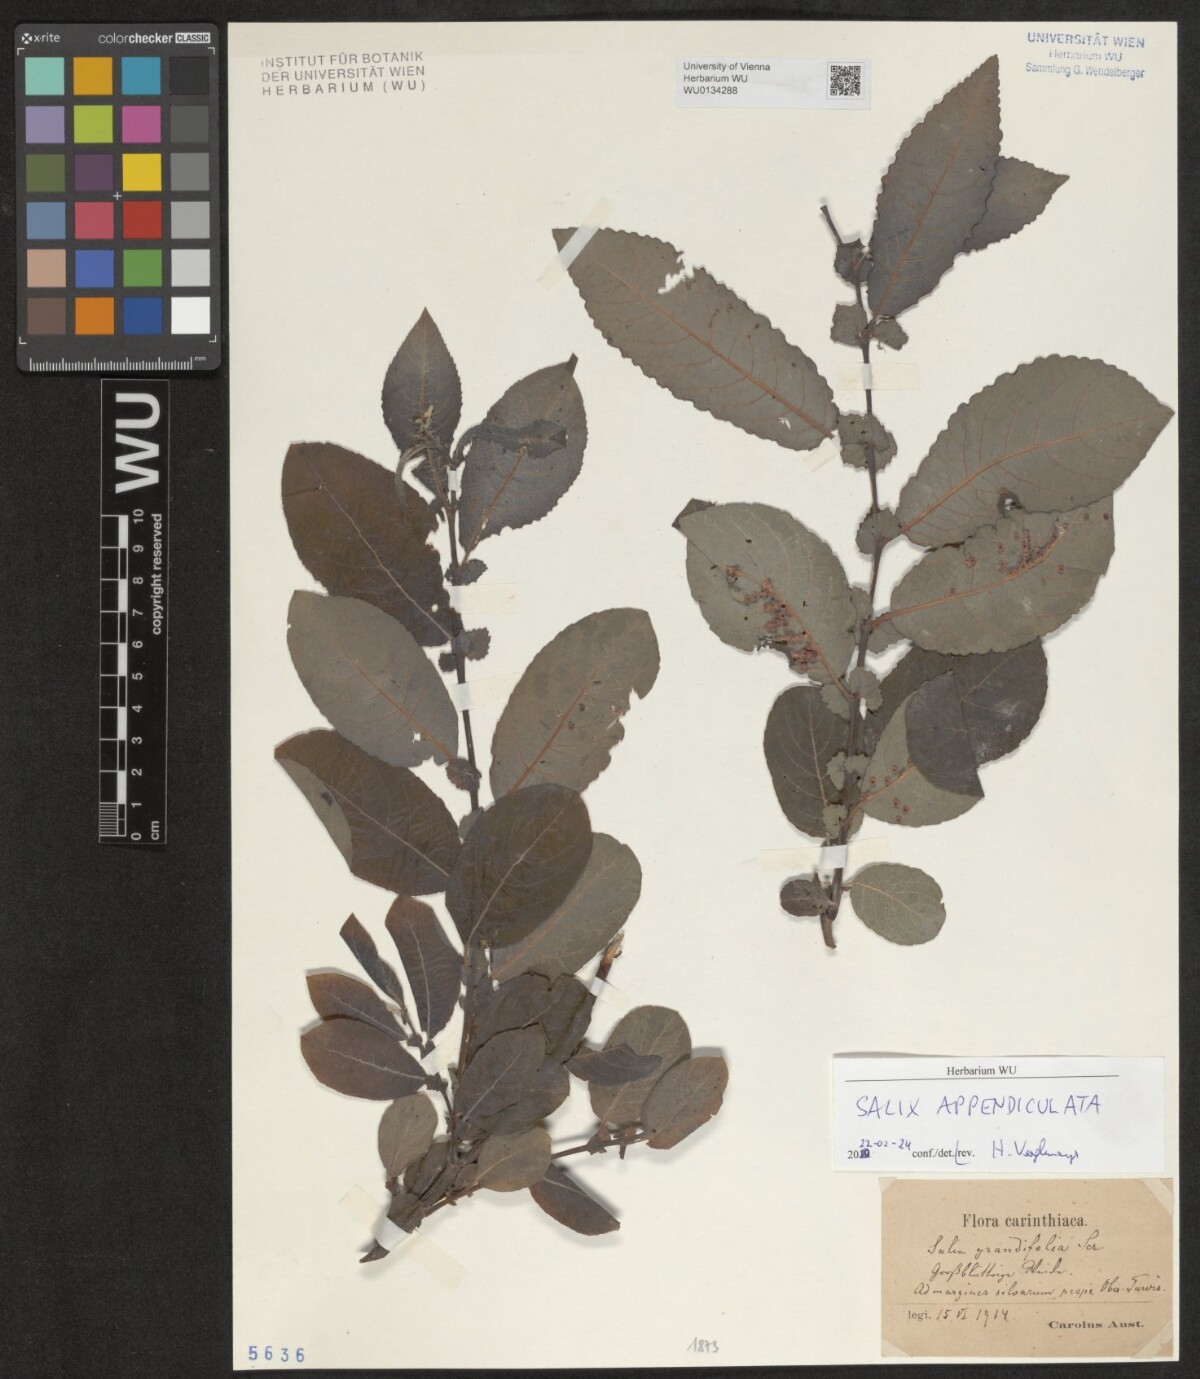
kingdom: Plantae
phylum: Tracheophyta
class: Magnoliopsida
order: Malpighiales
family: Salicaceae
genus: Salix
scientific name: Salix appendiculata
